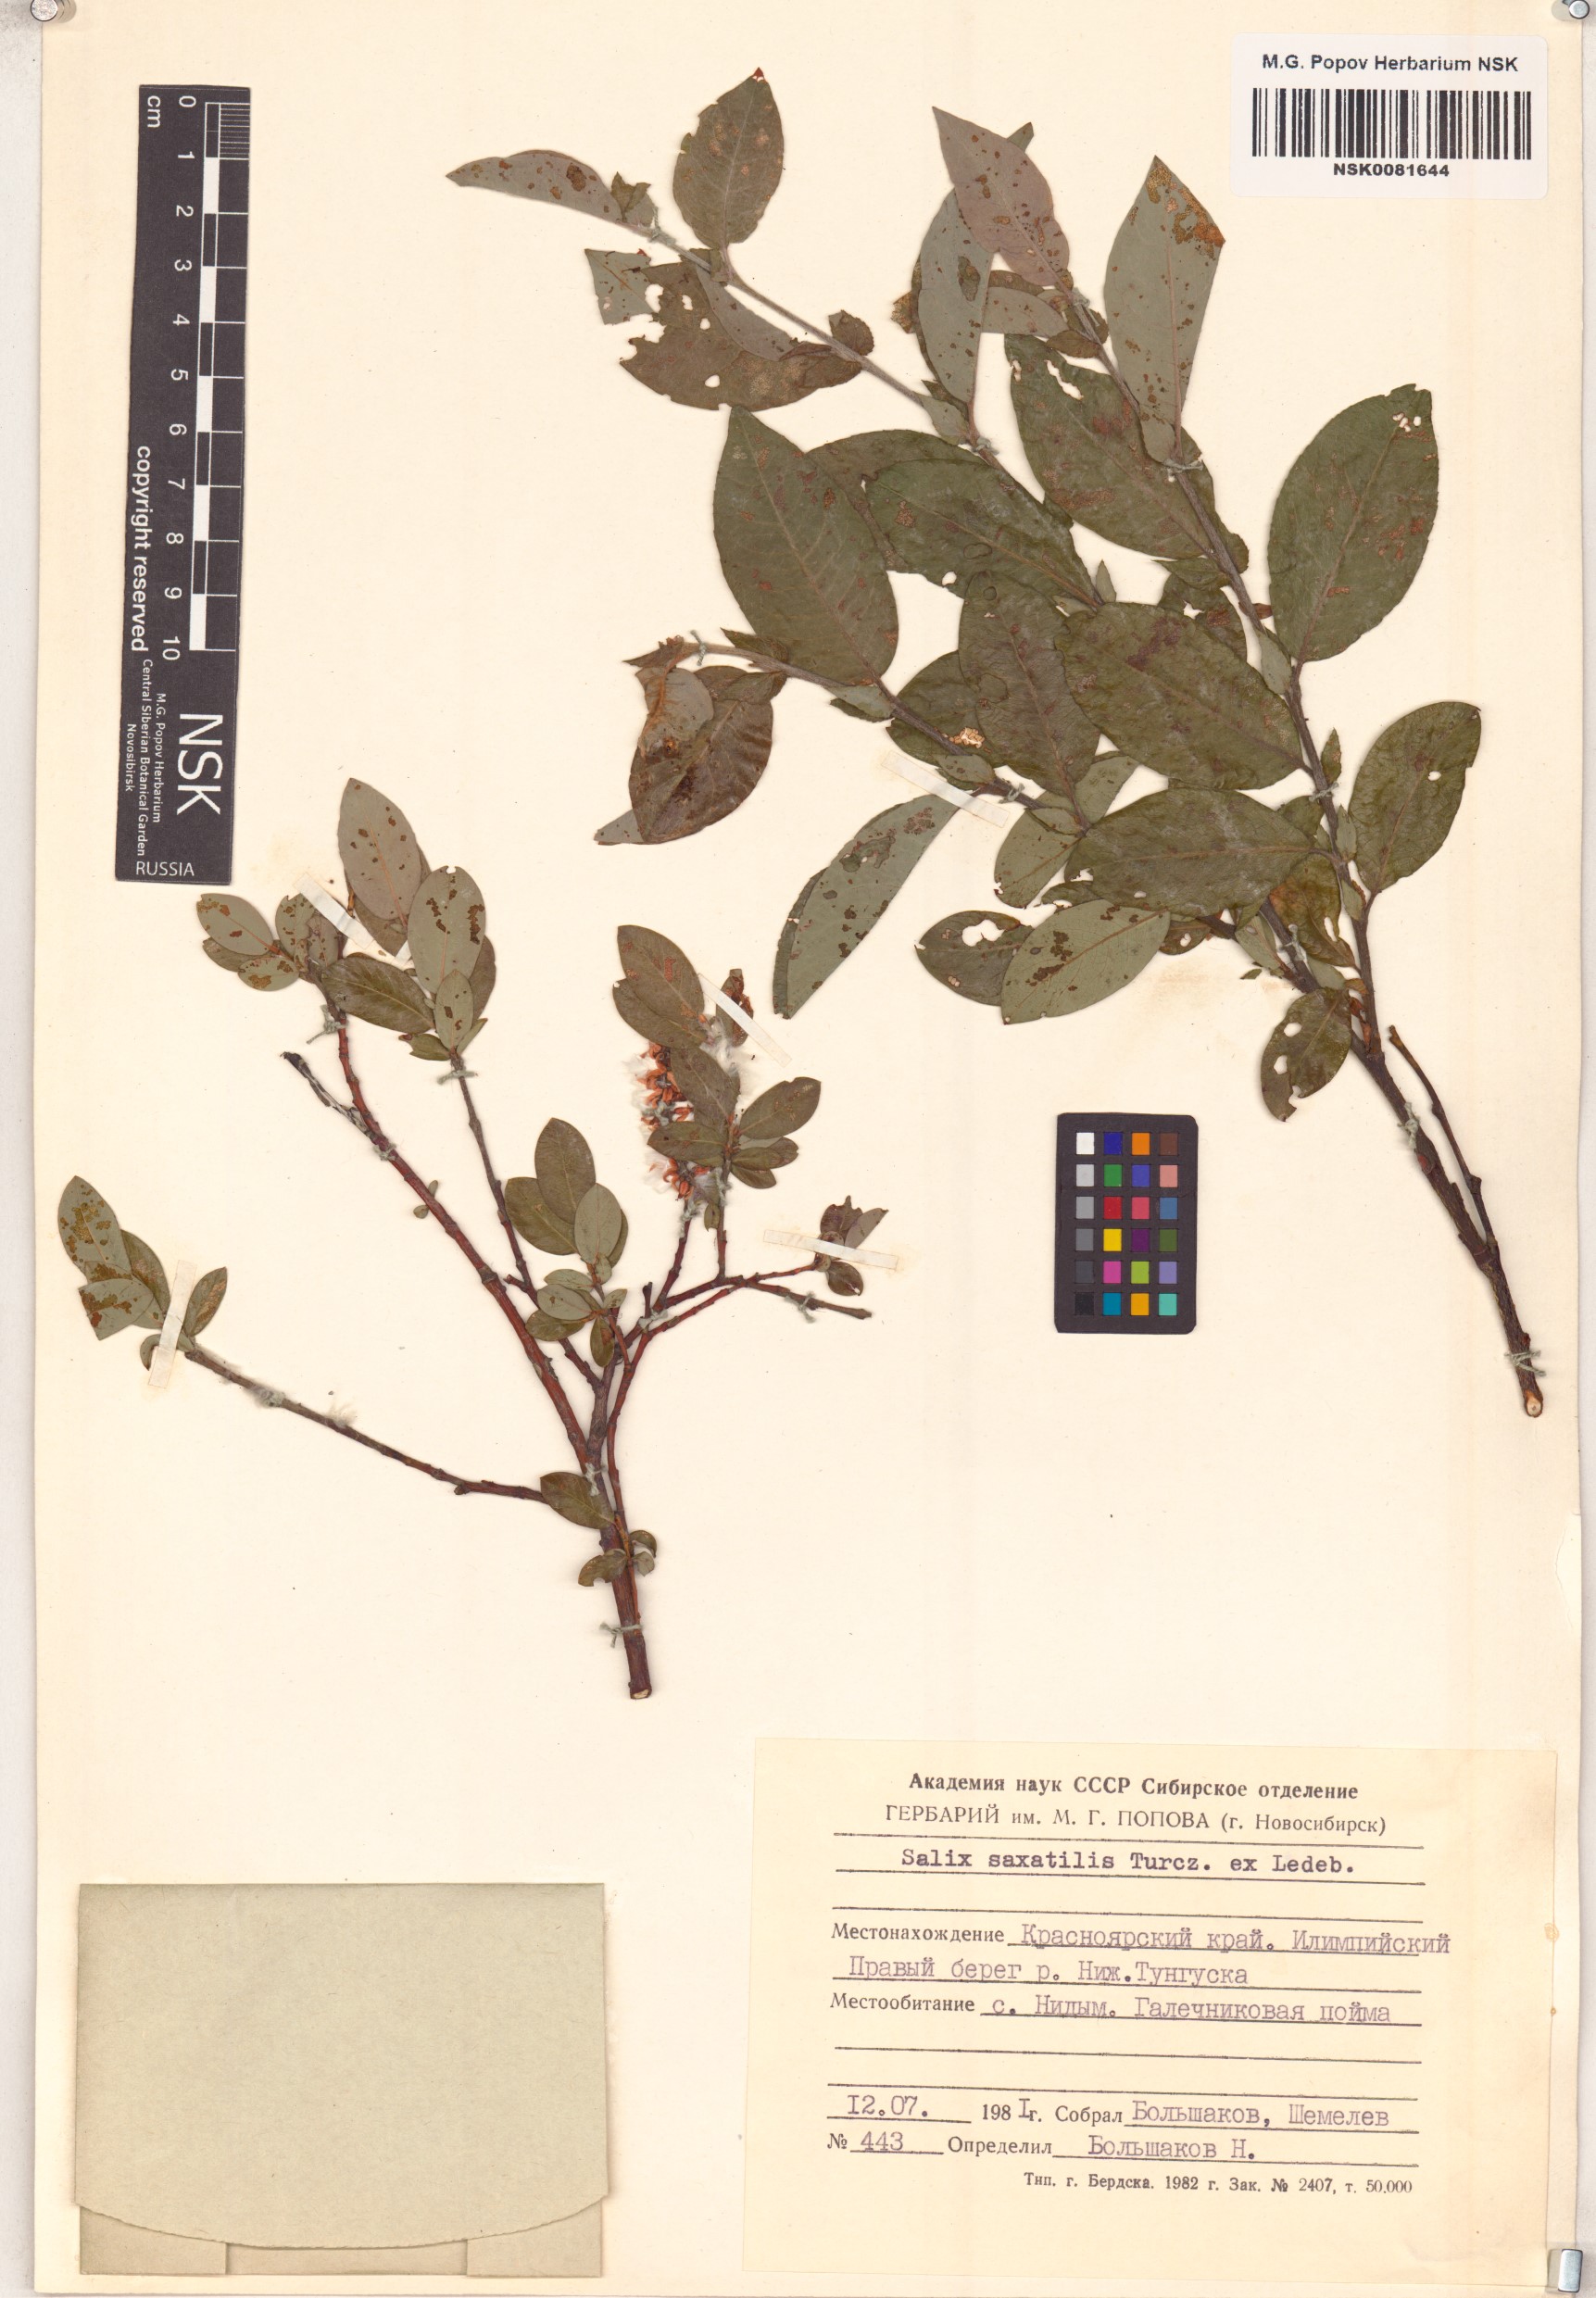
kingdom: Plantae
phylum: Tracheophyta
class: Magnoliopsida
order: Malpighiales
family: Salicaceae
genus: Salix
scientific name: Salix saxatilis
